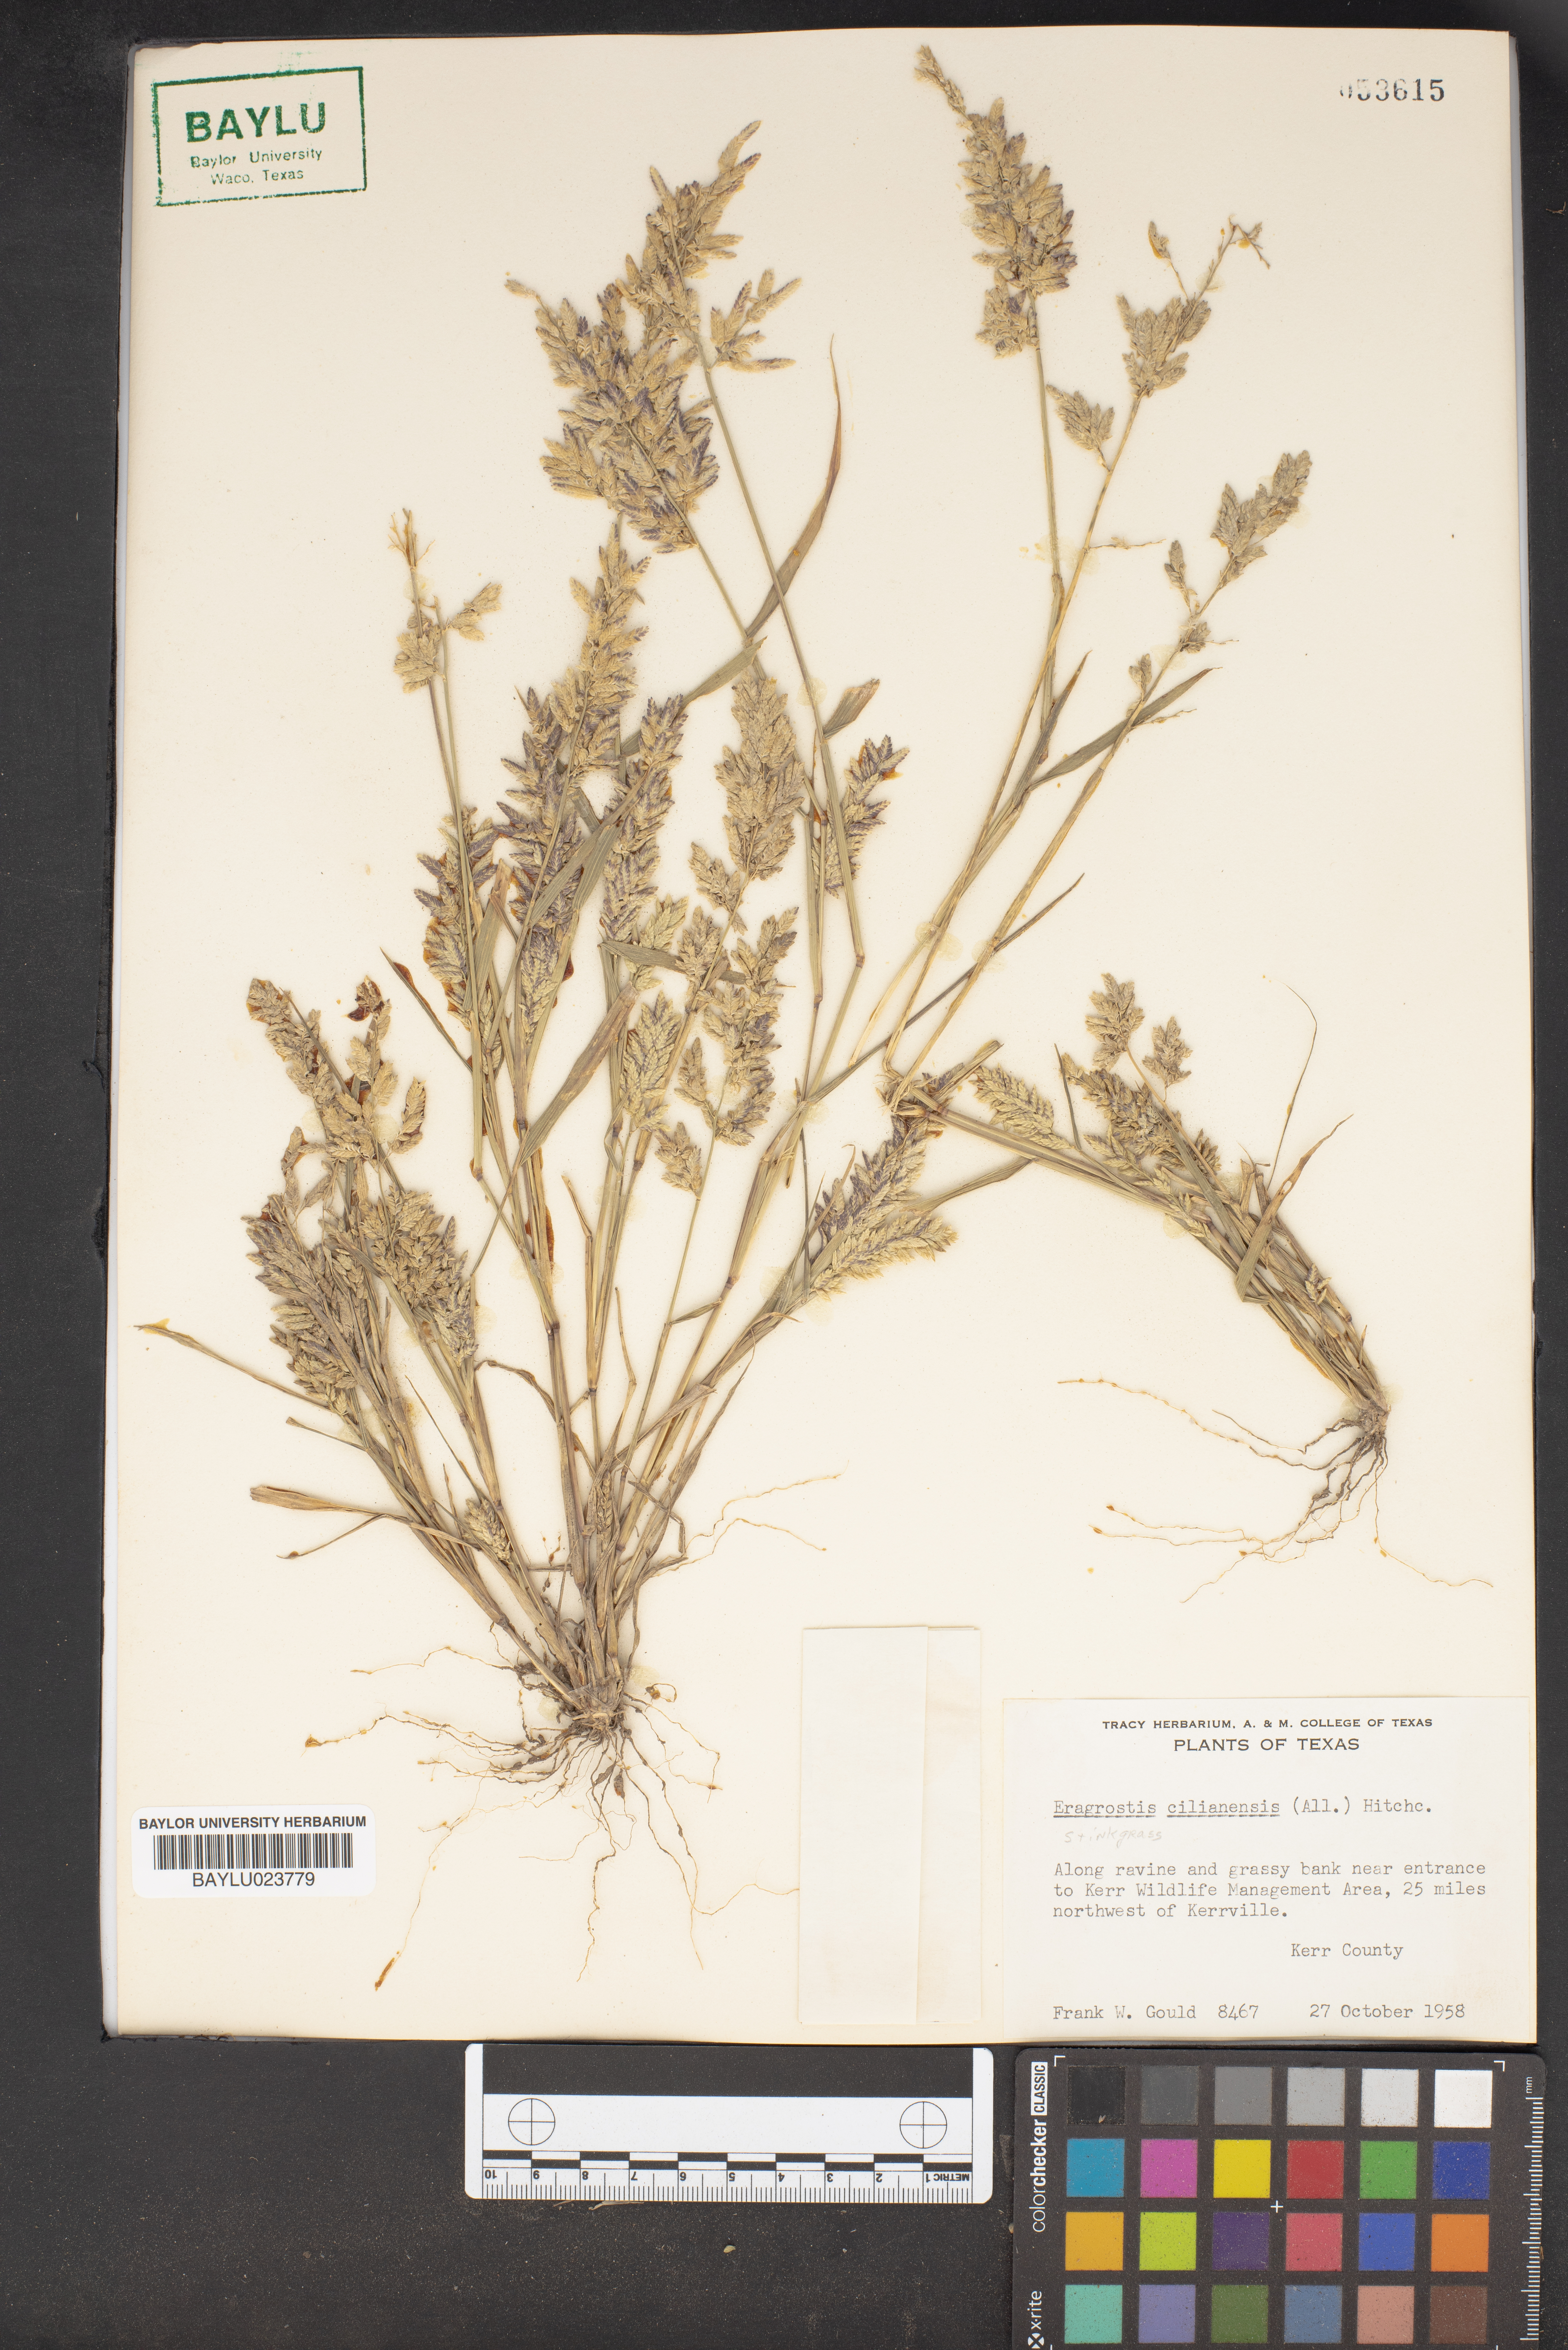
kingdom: Plantae
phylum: Tracheophyta
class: Liliopsida
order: Poales
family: Poaceae
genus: Eragrostis
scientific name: Eragrostis cilianensis
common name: Stinkgrass
